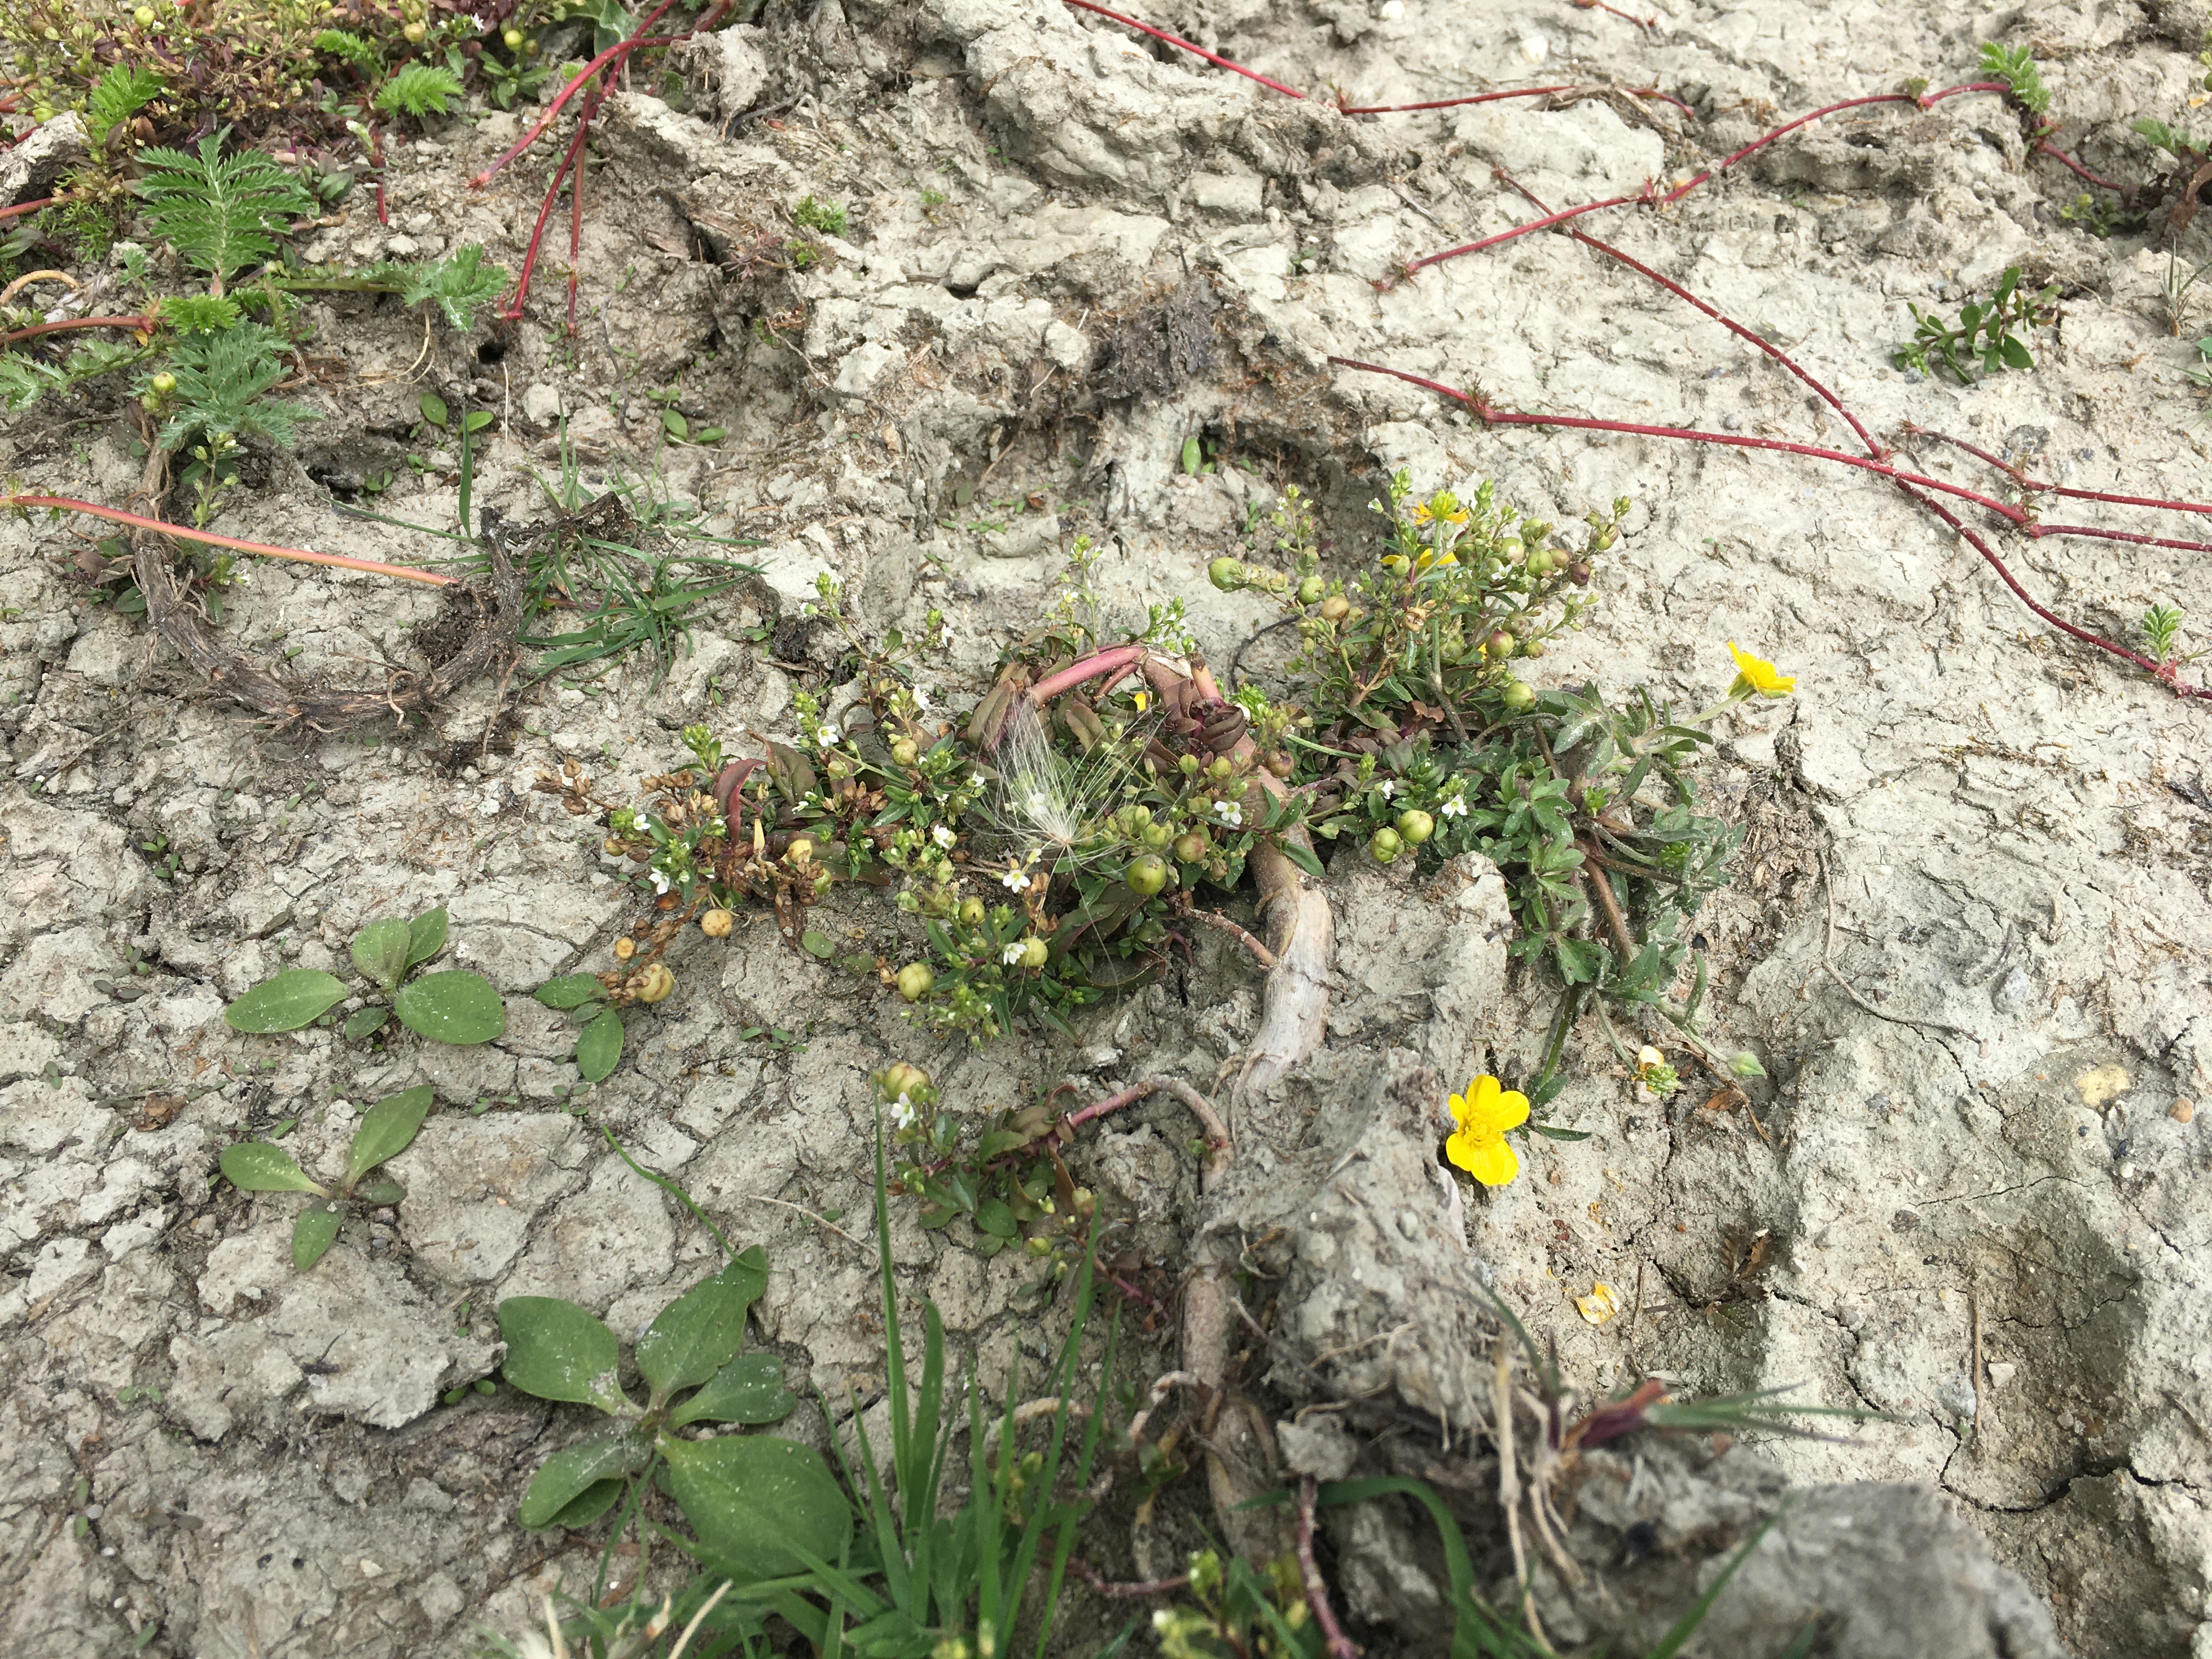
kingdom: Plantae
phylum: Tracheophyta
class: Magnoliopsida
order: Lamiales
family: Plantaginaceae
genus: Veronica
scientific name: Veronica anagallis-aquatica
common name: Lancetbladet ærenpris
